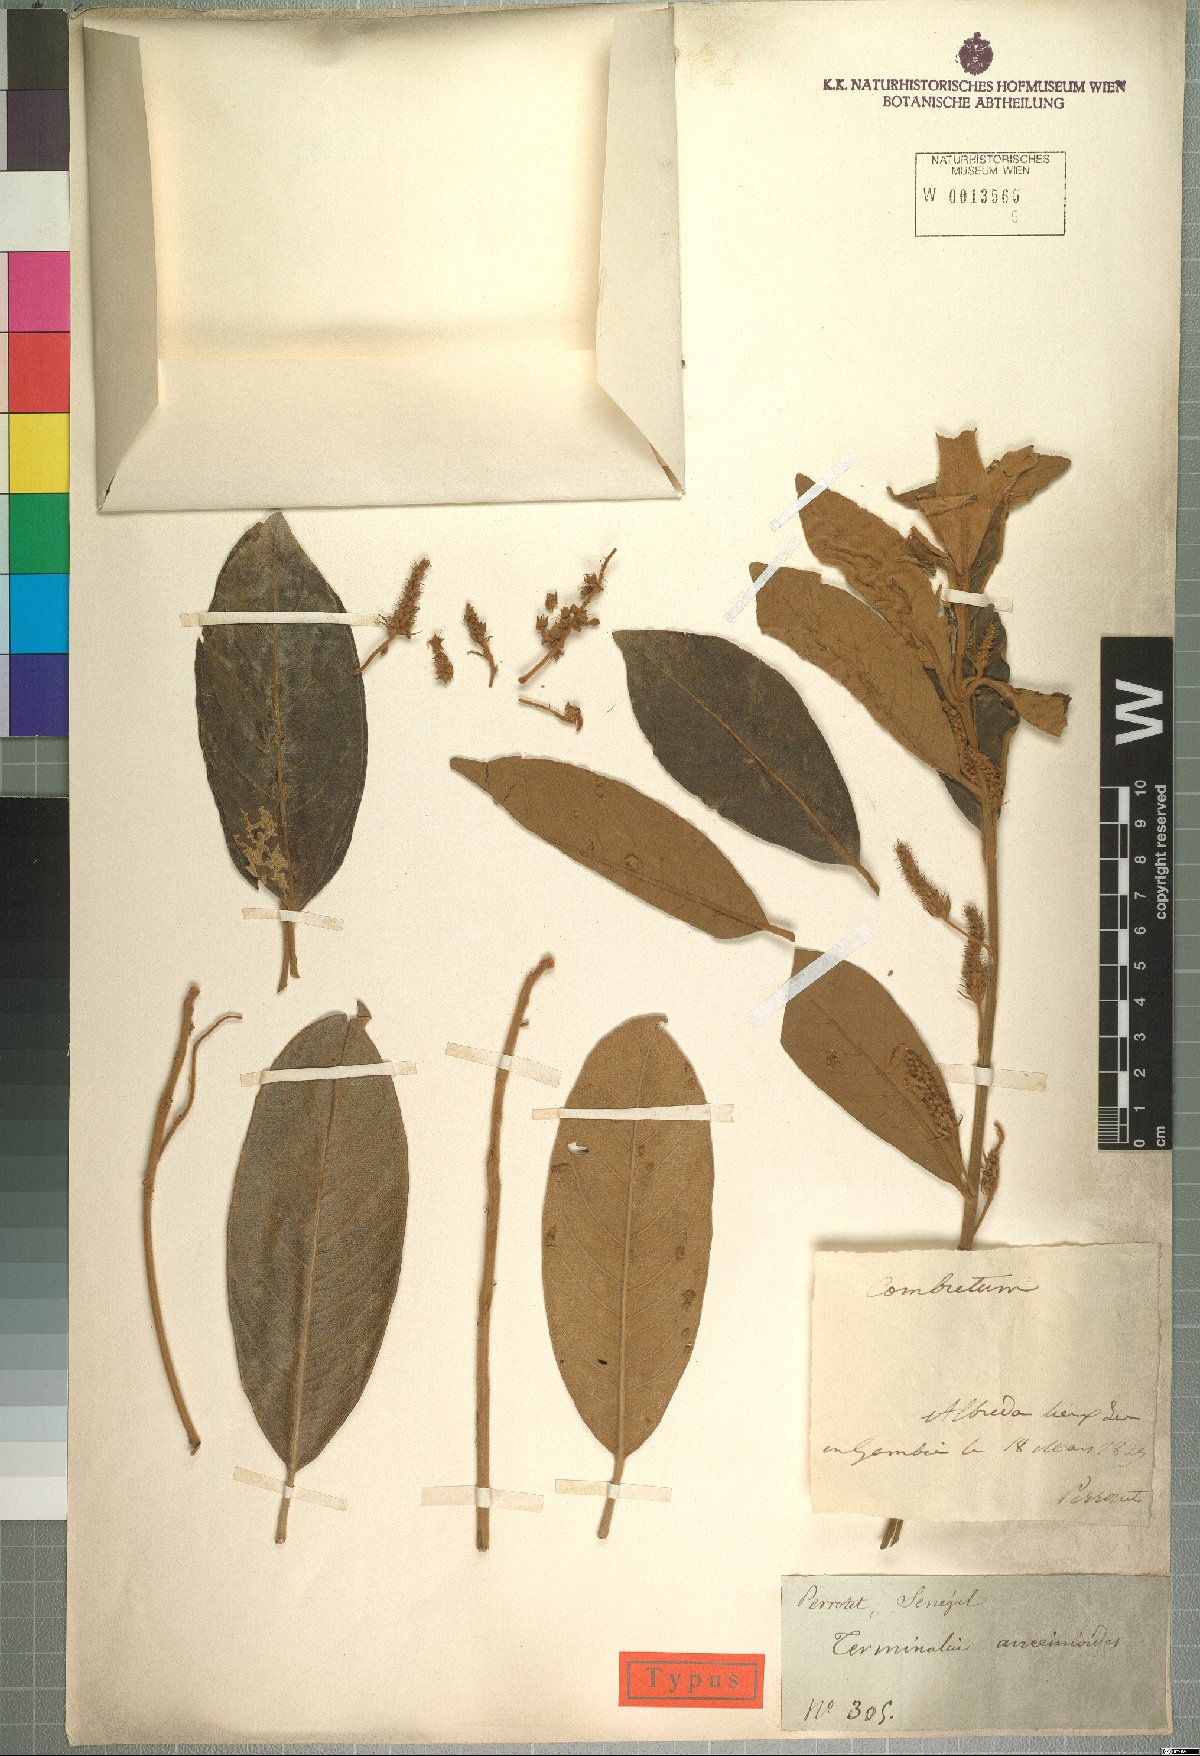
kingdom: Plantae
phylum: Tracheophyta
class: Magnoliopsida
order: Myrtales
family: Combretaceae
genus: Terminalia
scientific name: Terminalia avicennioides
